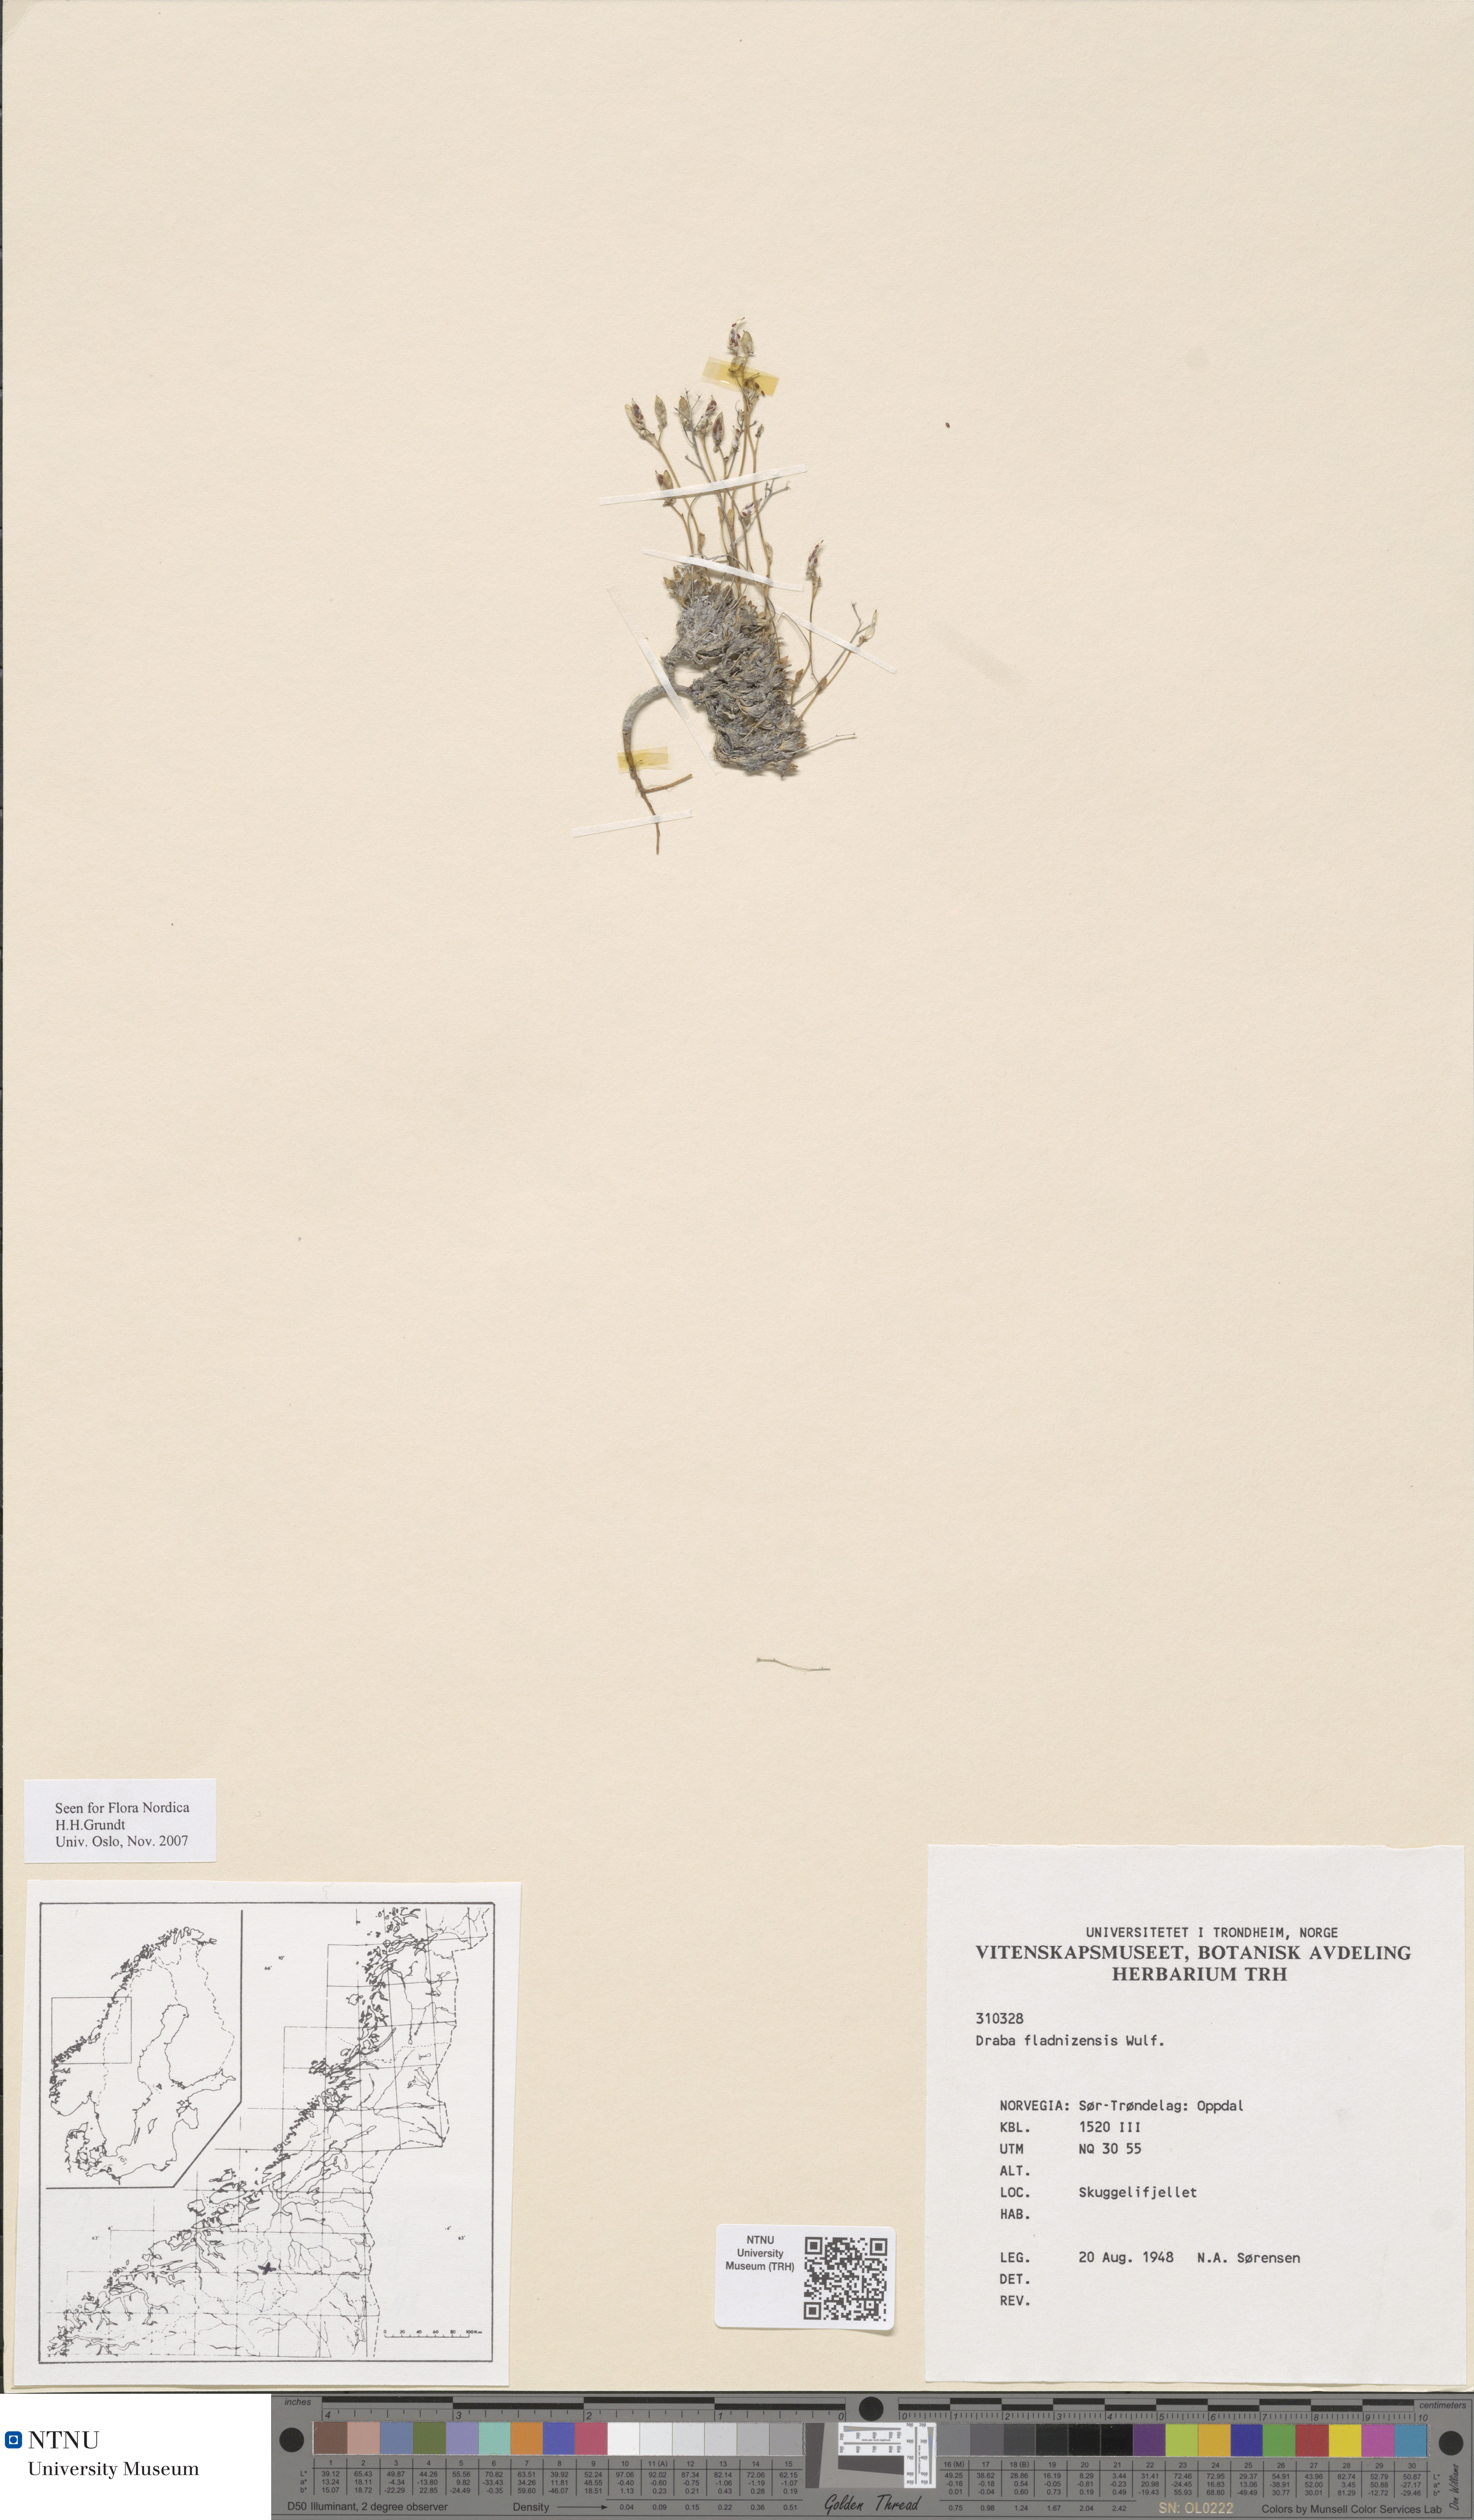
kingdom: Plantae
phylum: Tracheophyta
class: Magnoliopsida
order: Brassicales
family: Brassicaceae
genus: Draba
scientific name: Draba fladnizensis
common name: Austrian draba
